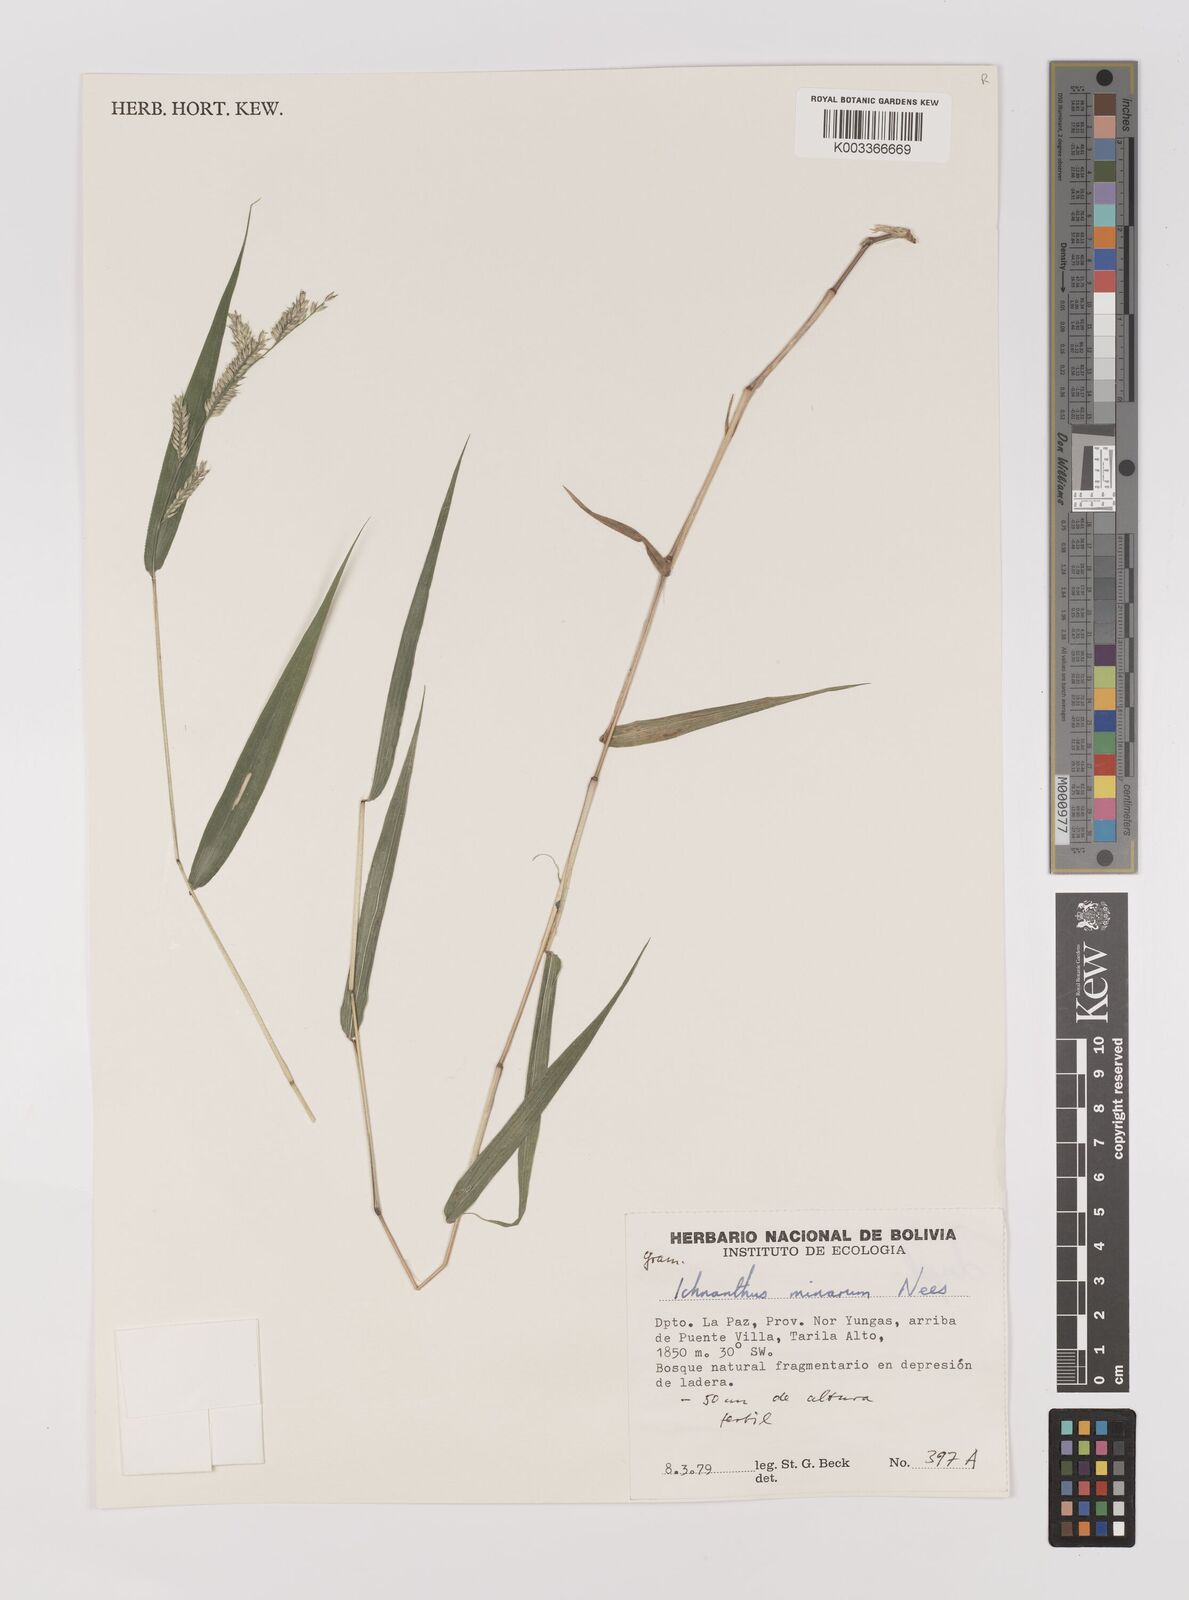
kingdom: Plantae
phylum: Tracheophyta
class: Liliopsida
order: Poales
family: Poaceae
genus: Oedochloa
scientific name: Oedochloa minarum
